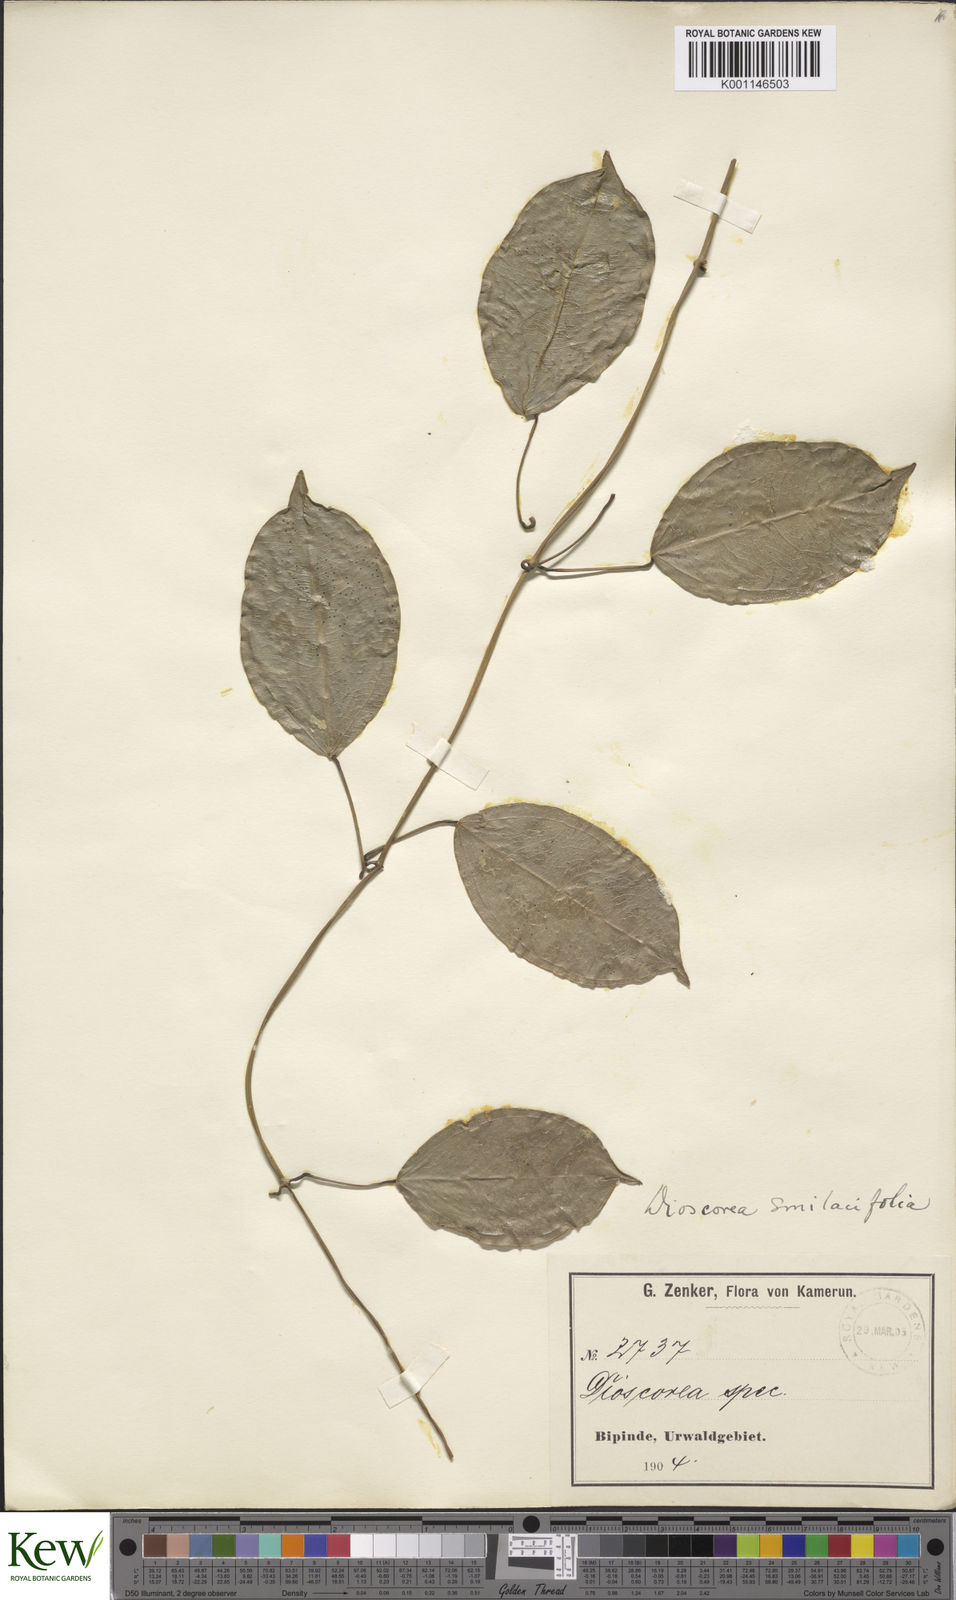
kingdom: Plantae
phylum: Tracheophyta
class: Liliopsida
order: Dioscoreales
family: Dioscoreaceae
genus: Dioscorea
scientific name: Dioscorea smilacifolia
